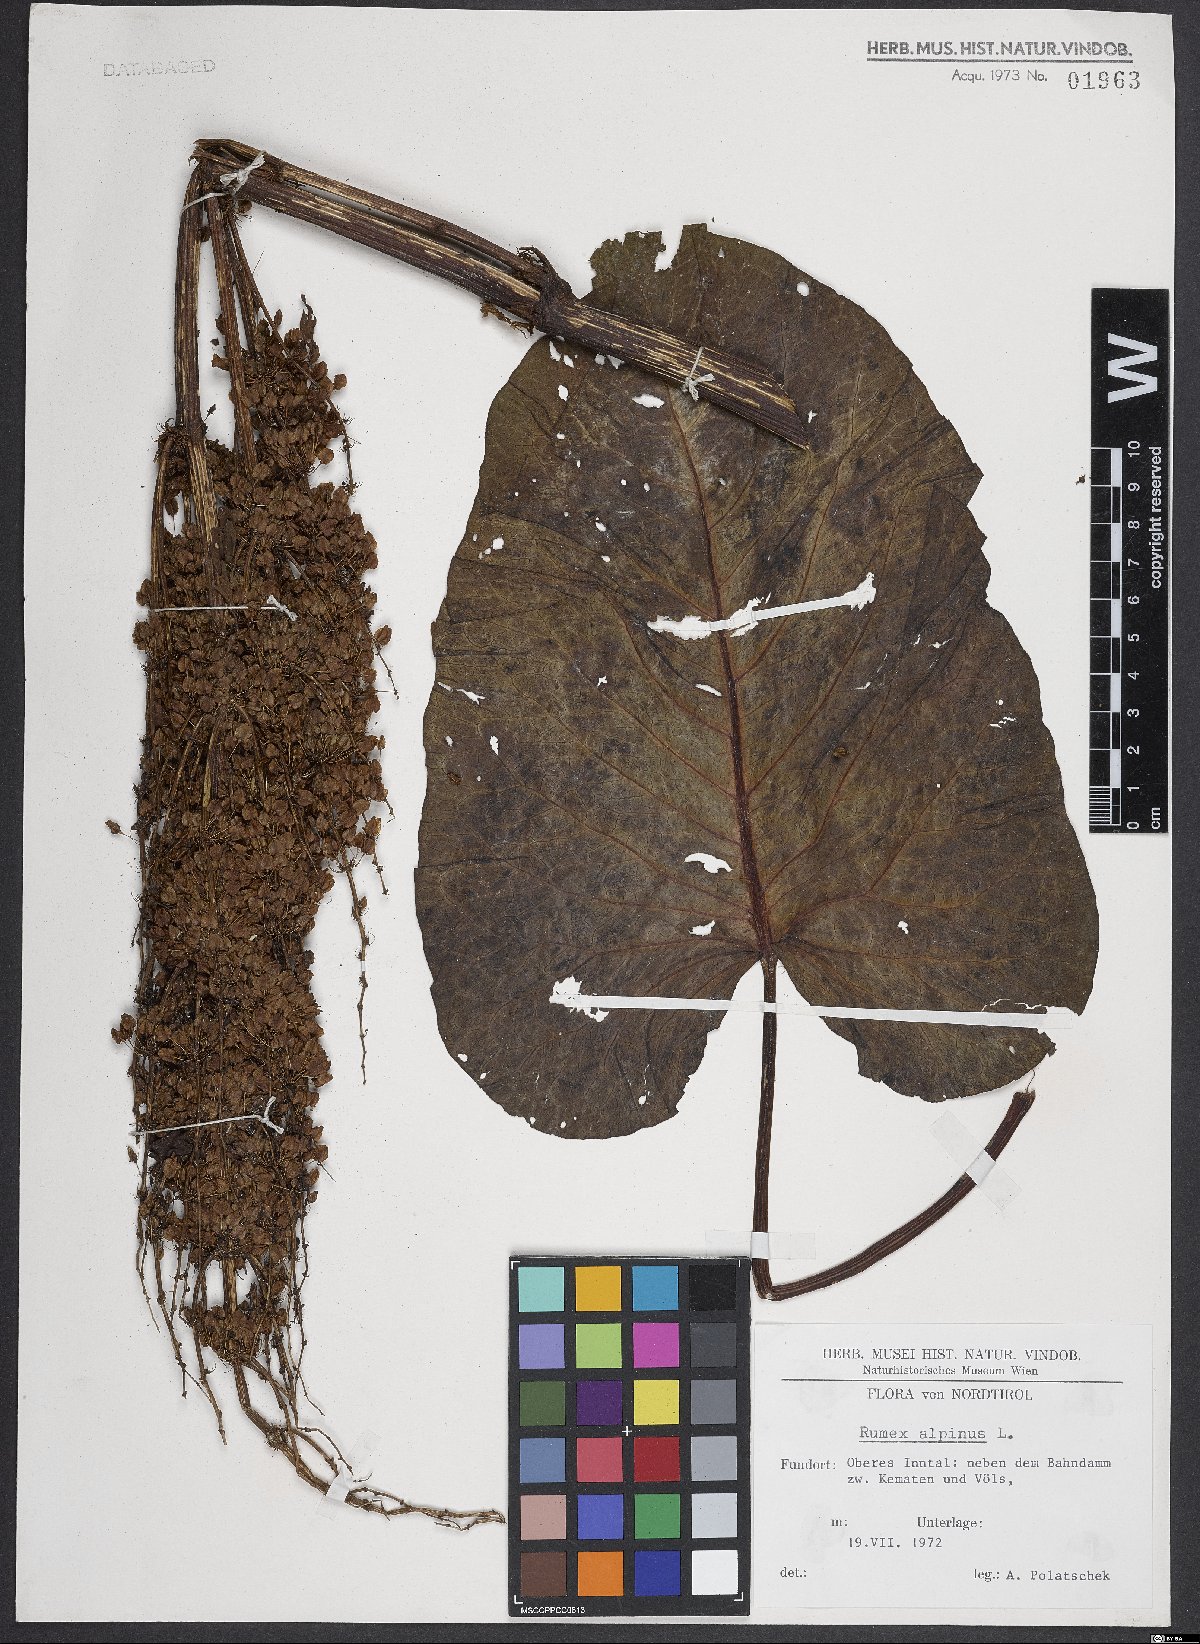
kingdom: Plantae
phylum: Tracheophyta
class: Magnoliopsida
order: Caryophyllales
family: Polygonaceae
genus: Rumex
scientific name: Rumex alpinus
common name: Alpine dock
